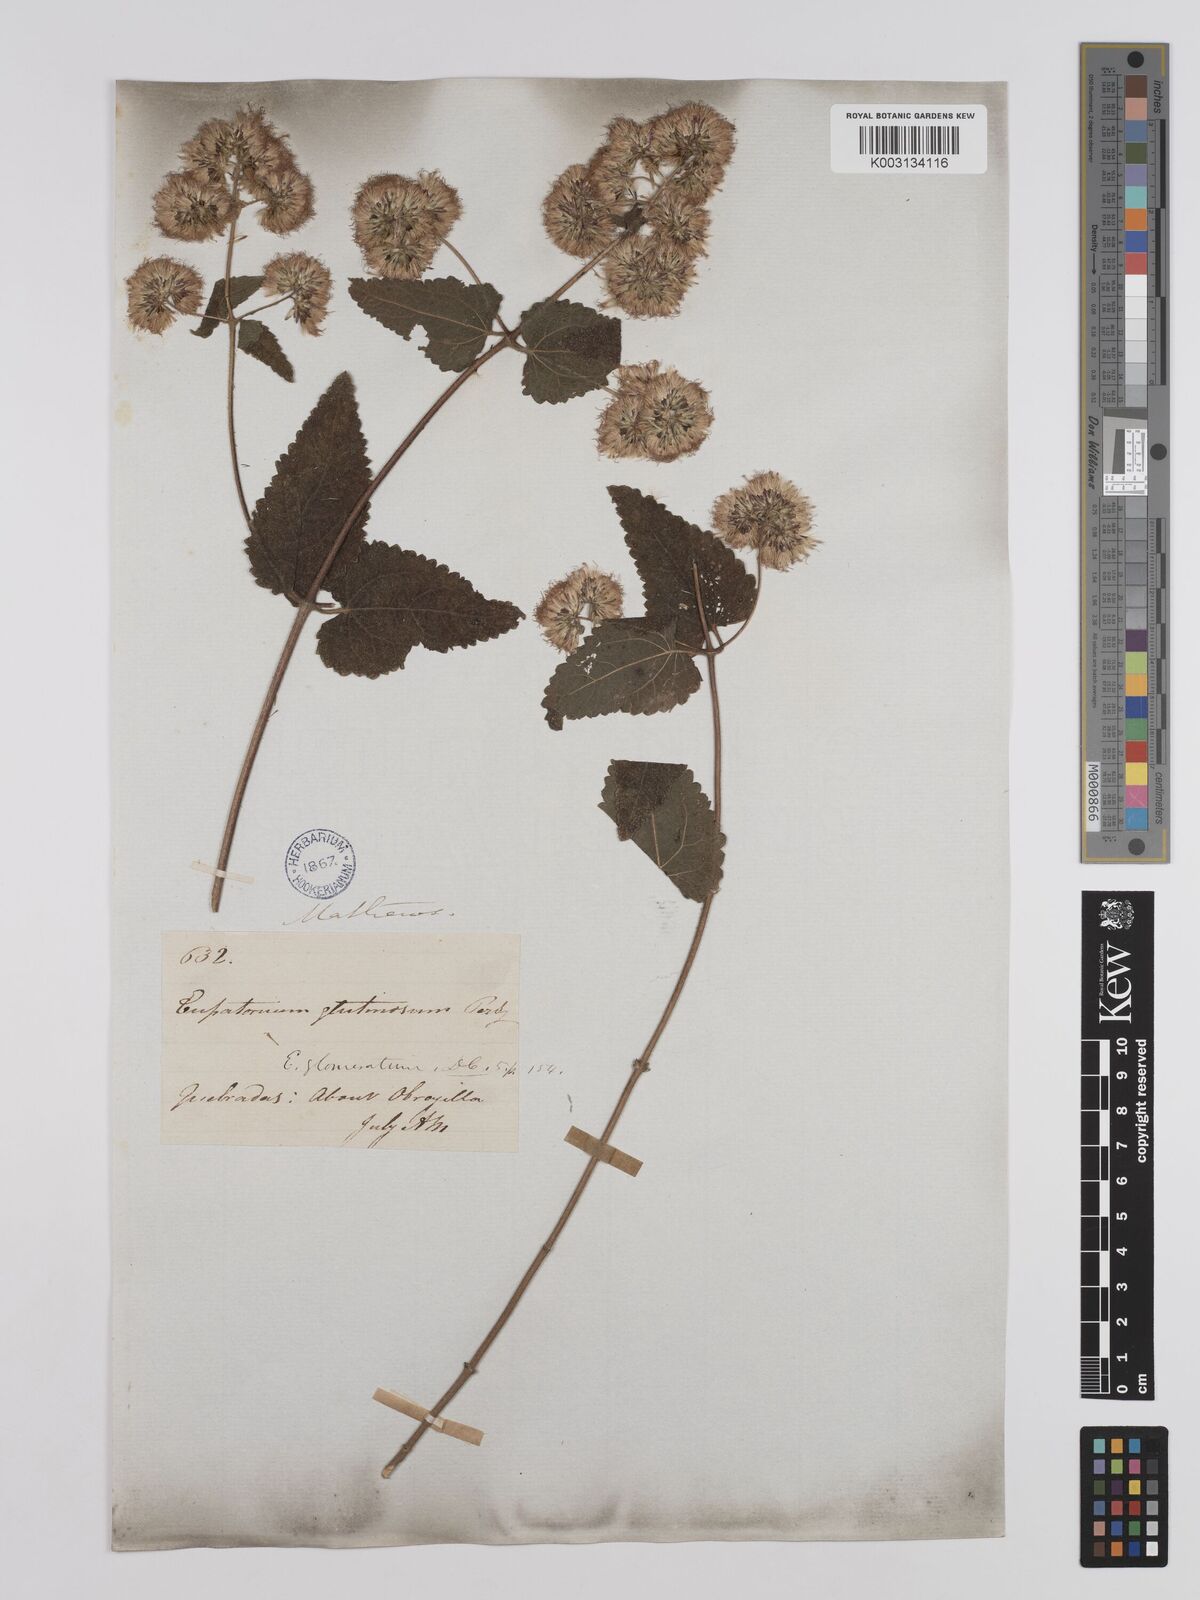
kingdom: Plantae
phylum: Tracheophyta
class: Magnoliopsida
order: Asterales
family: Asteraceae
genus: Cronquistianthus
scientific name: Cronquistianthus glomeratus
